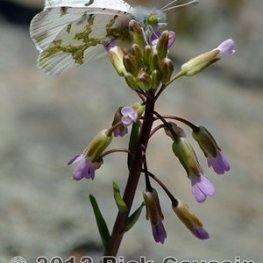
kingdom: Animalia
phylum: Arthropoda
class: Insecta
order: Lepidoptera
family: Pieridae
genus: Euchloe
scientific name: Euchloe olympia
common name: Olympia Marble
